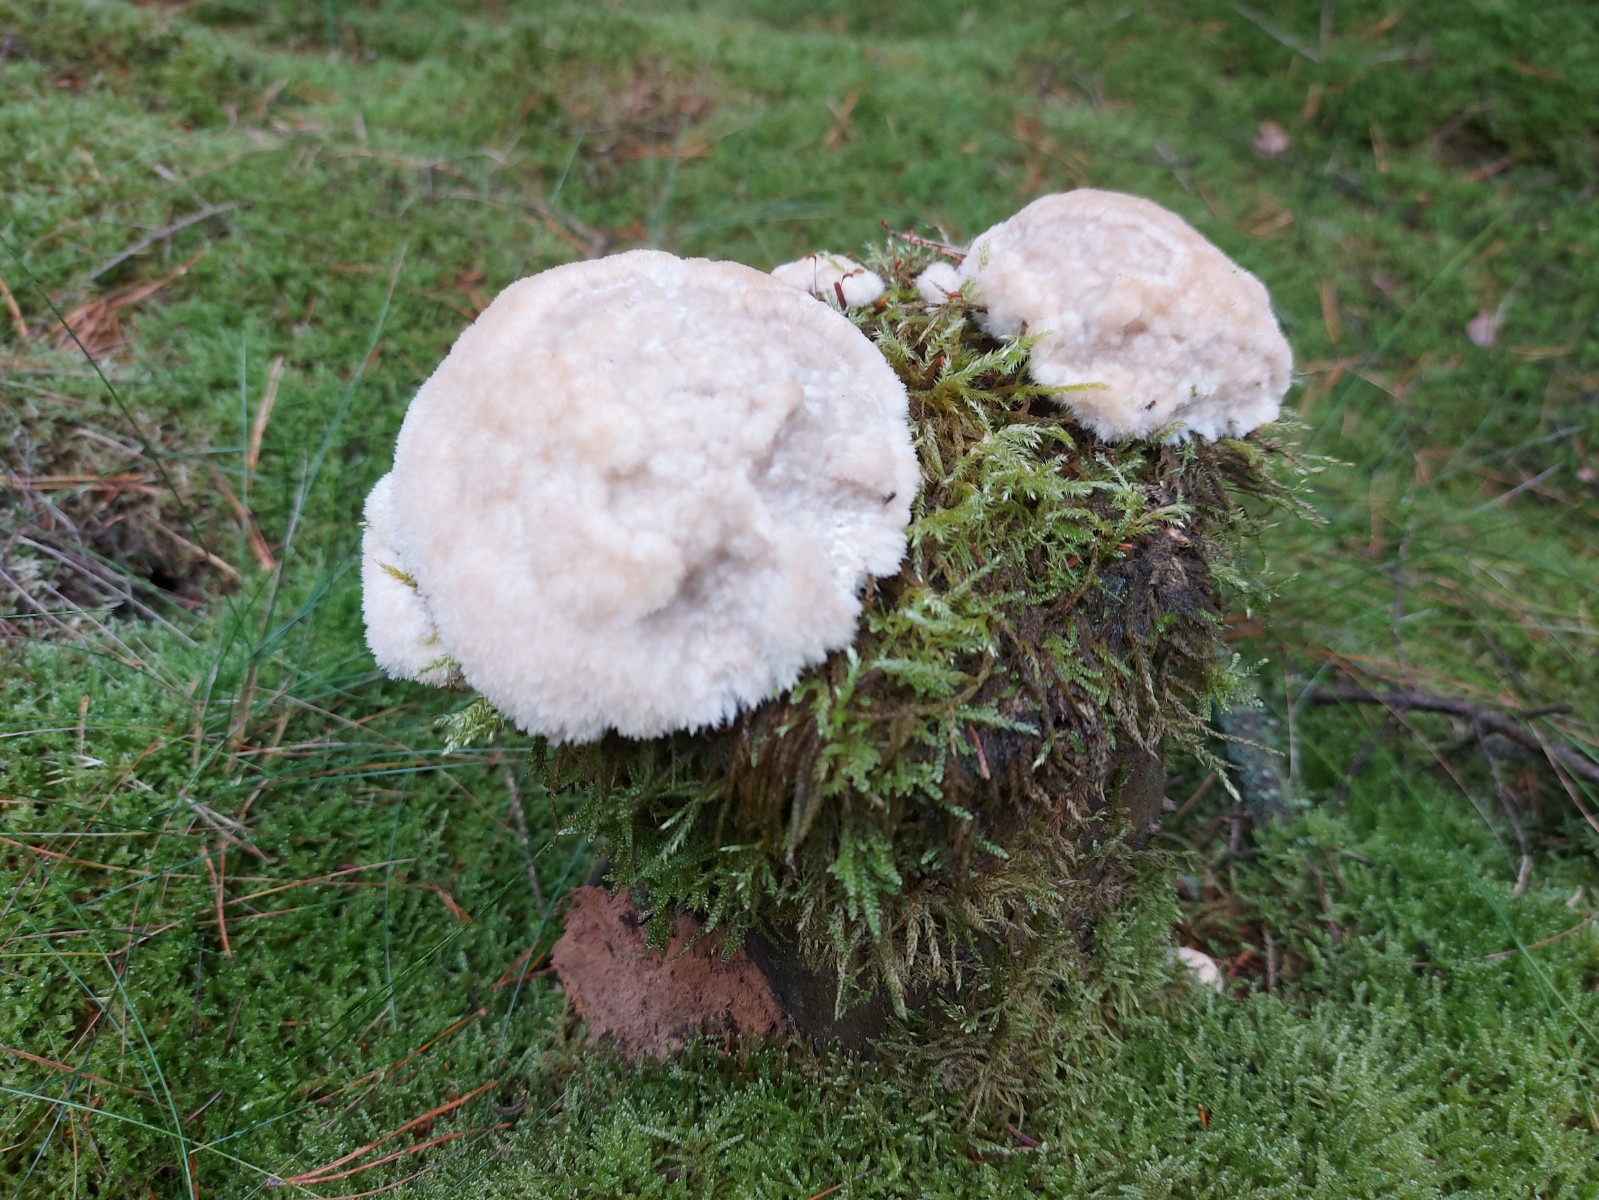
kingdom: Fungi
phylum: Basidiomycota
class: Agaricomycetes
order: Polyporales
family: Dacryobolaceae
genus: Postia
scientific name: Postia ptychogaster
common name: støvende kødporesvamp
